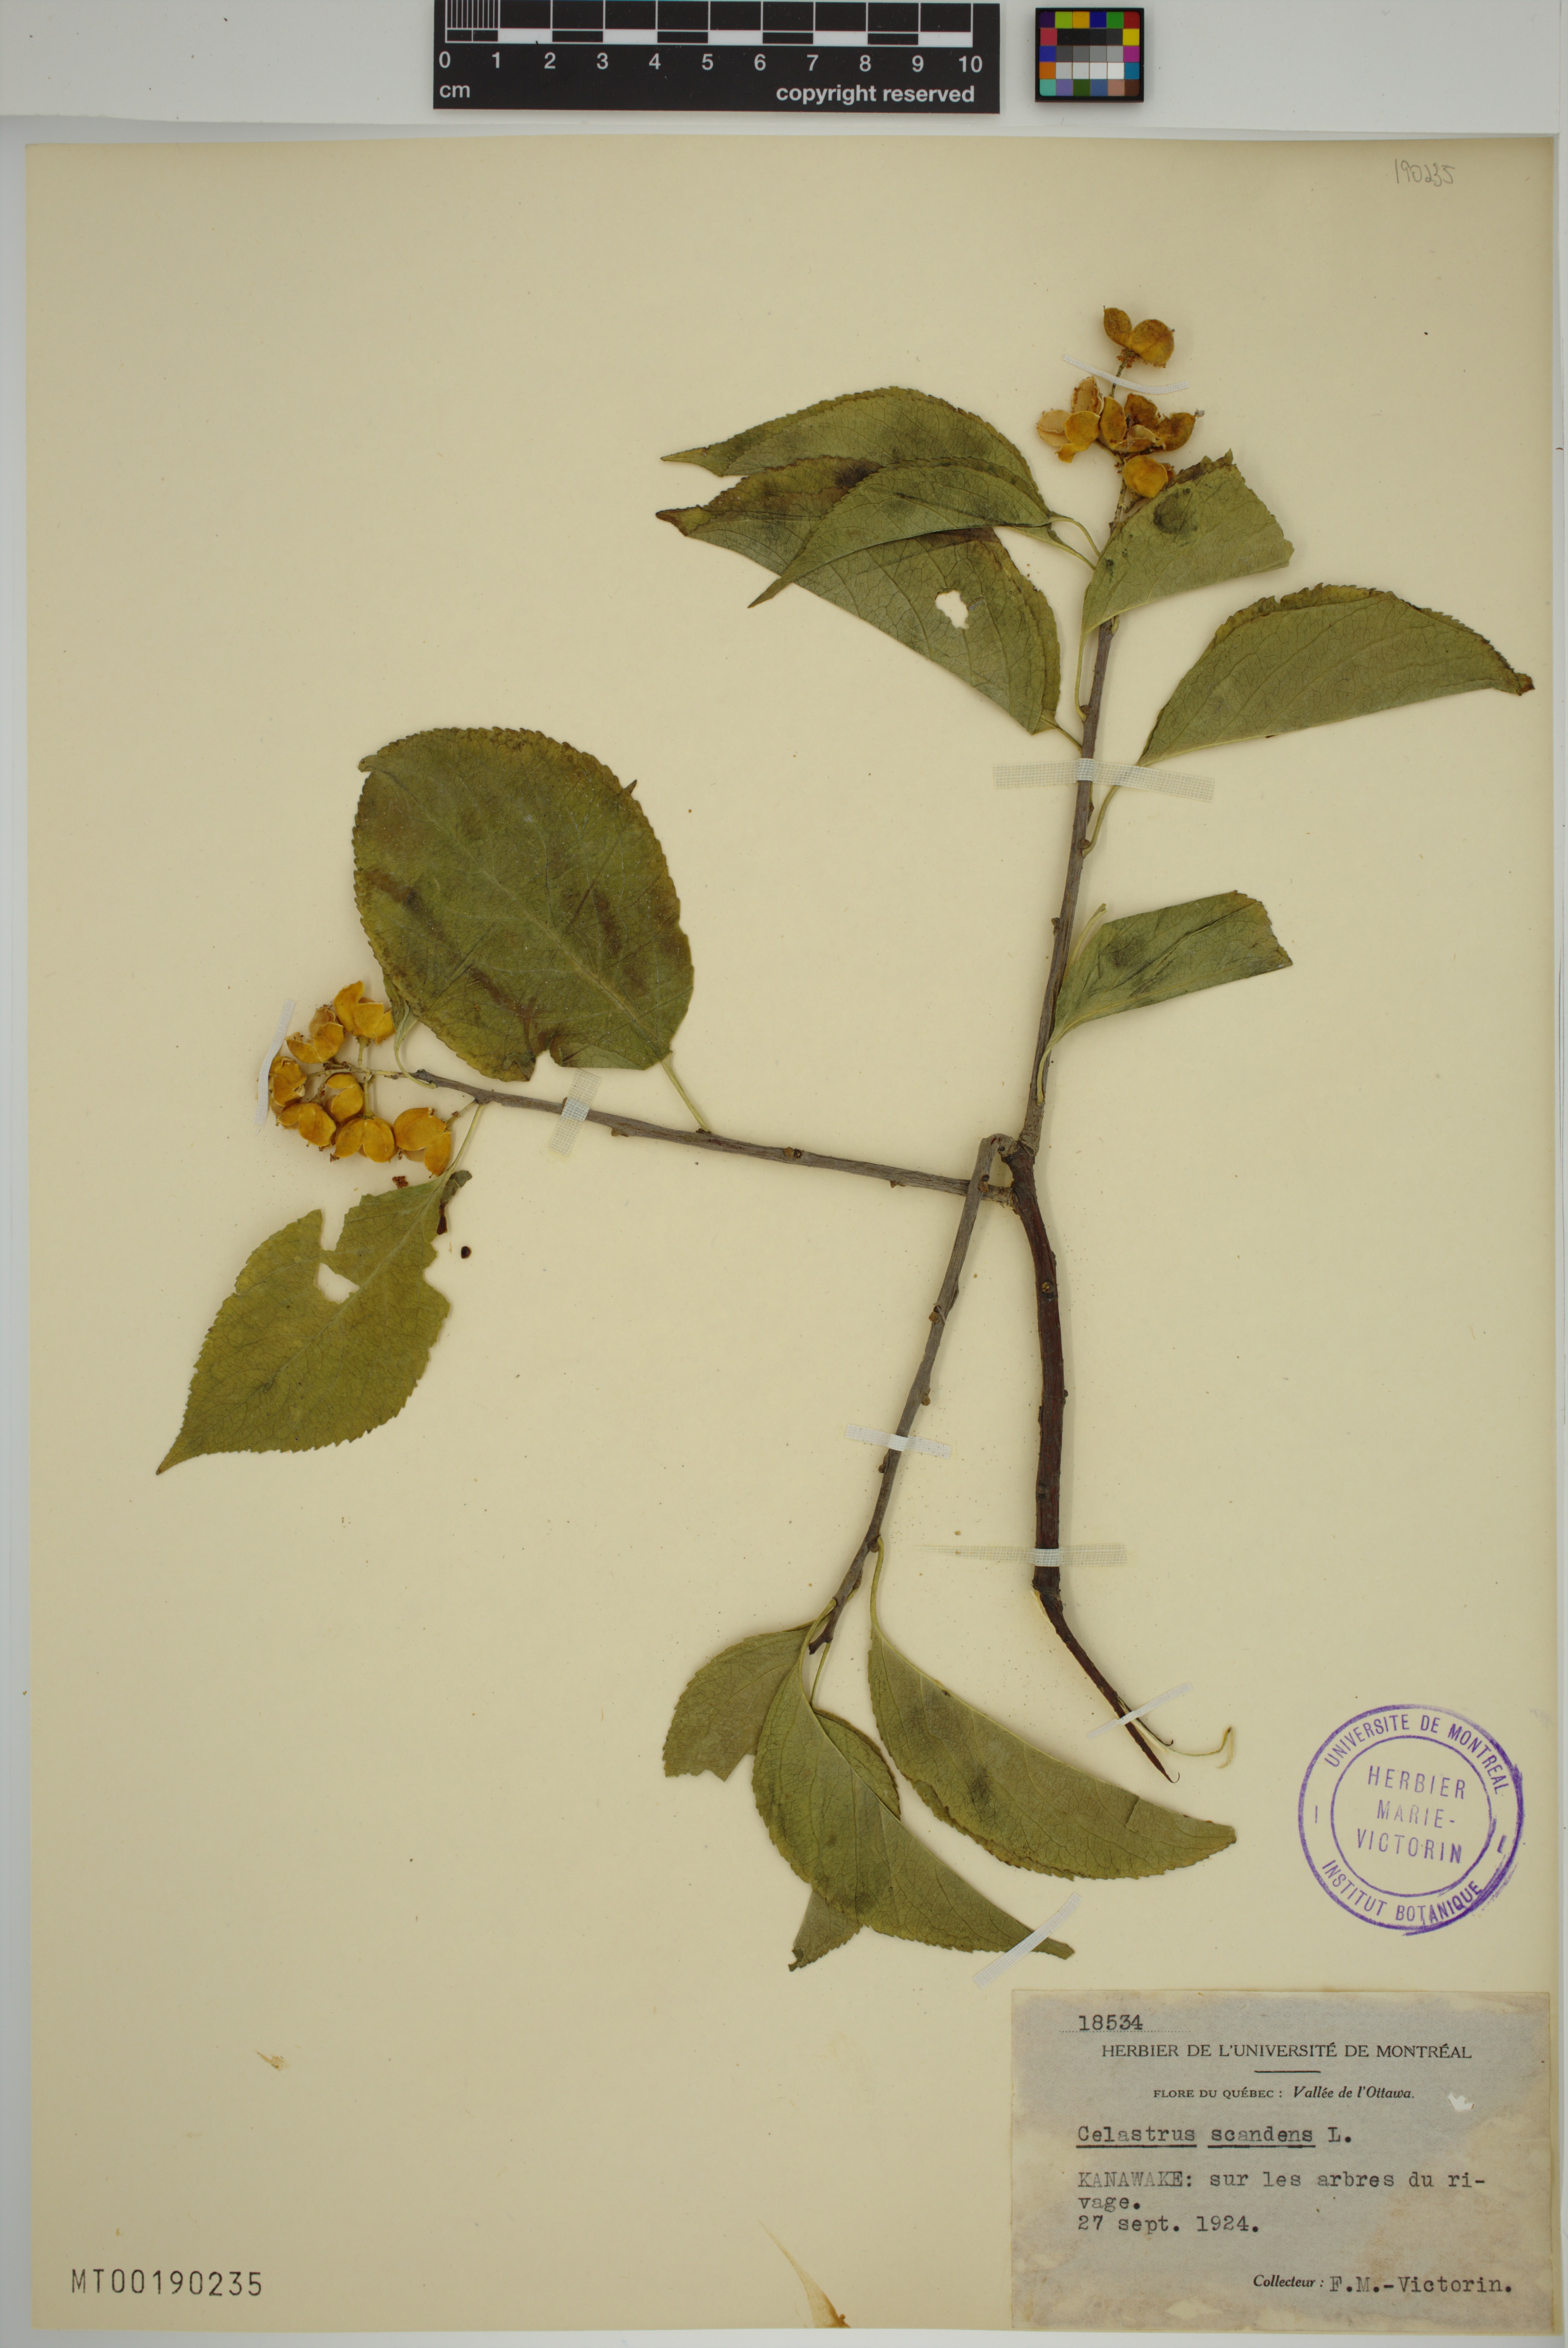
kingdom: Plantae
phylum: Tracheophyta
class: Magnoliopsida
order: Celastrales
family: Celastraceae
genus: Celastrus
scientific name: Celastrus scandens
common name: American bittersweet
